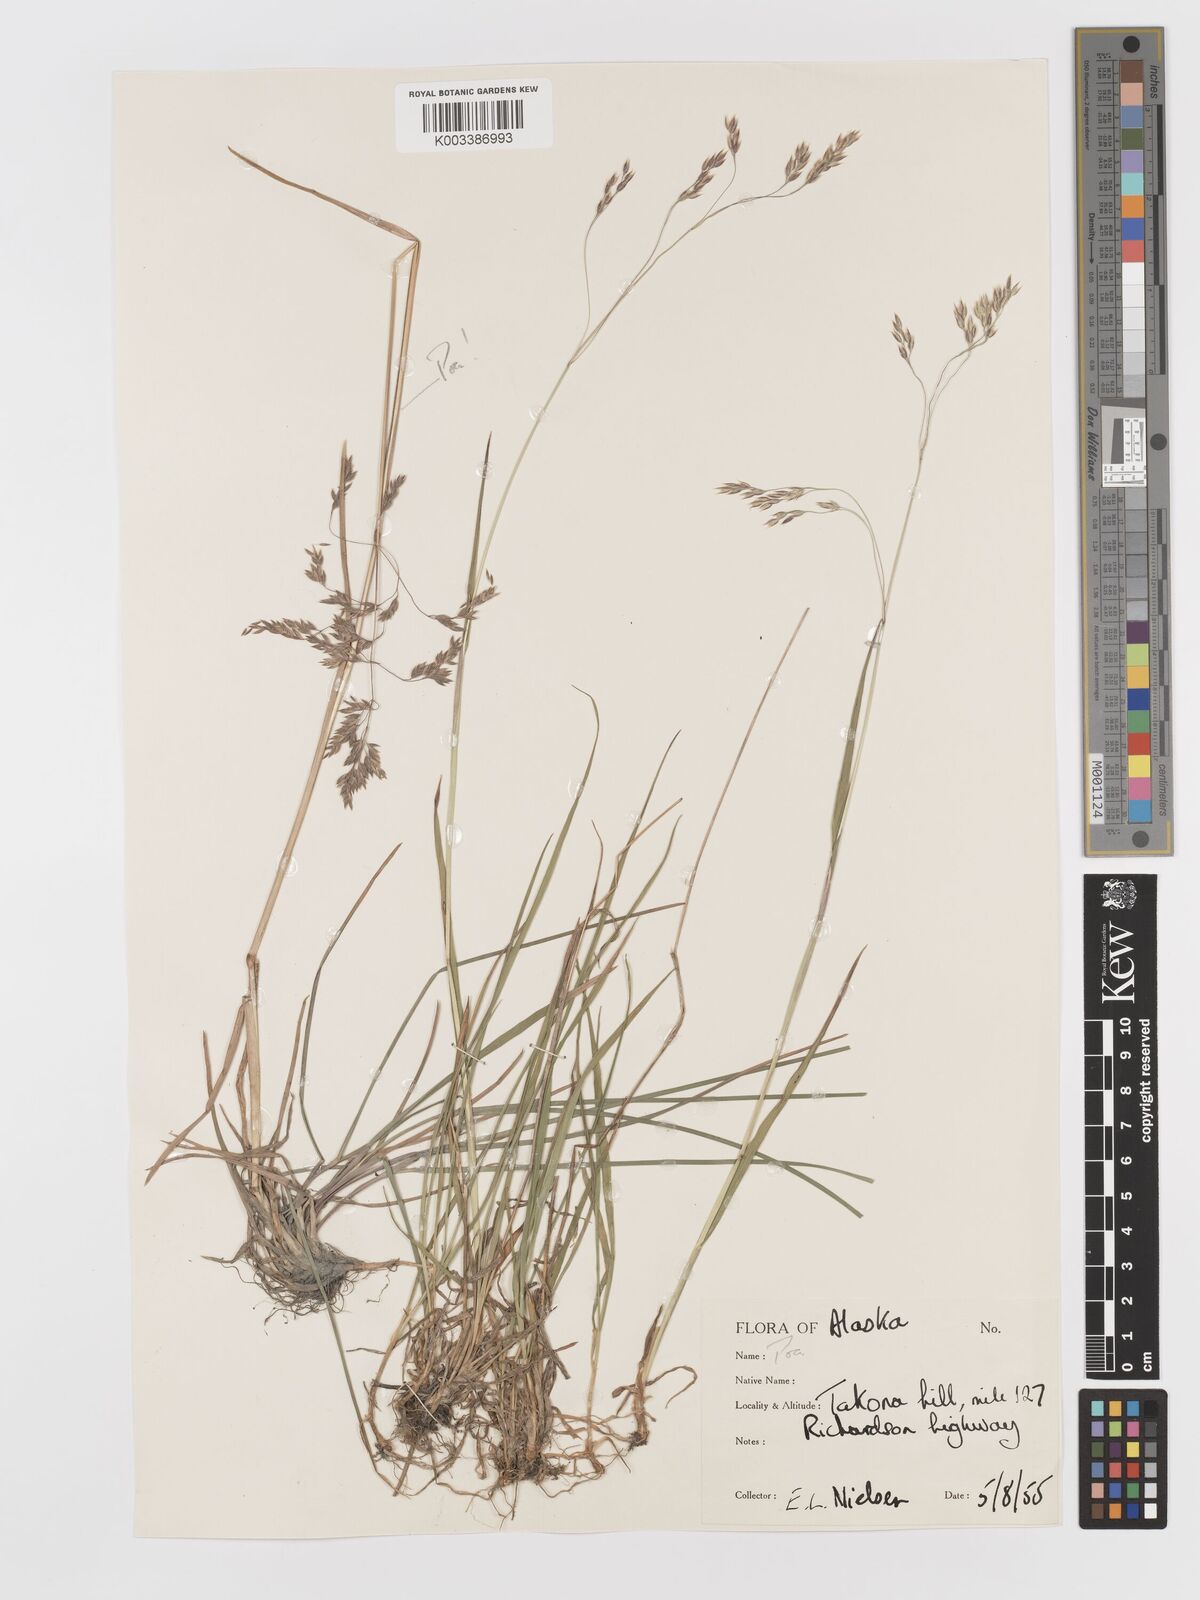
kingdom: Plantae
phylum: Tracheophyta
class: Liliopsida
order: Poales
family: Poaceae
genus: Vahlodea
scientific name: Vahlodea atropurpurea
